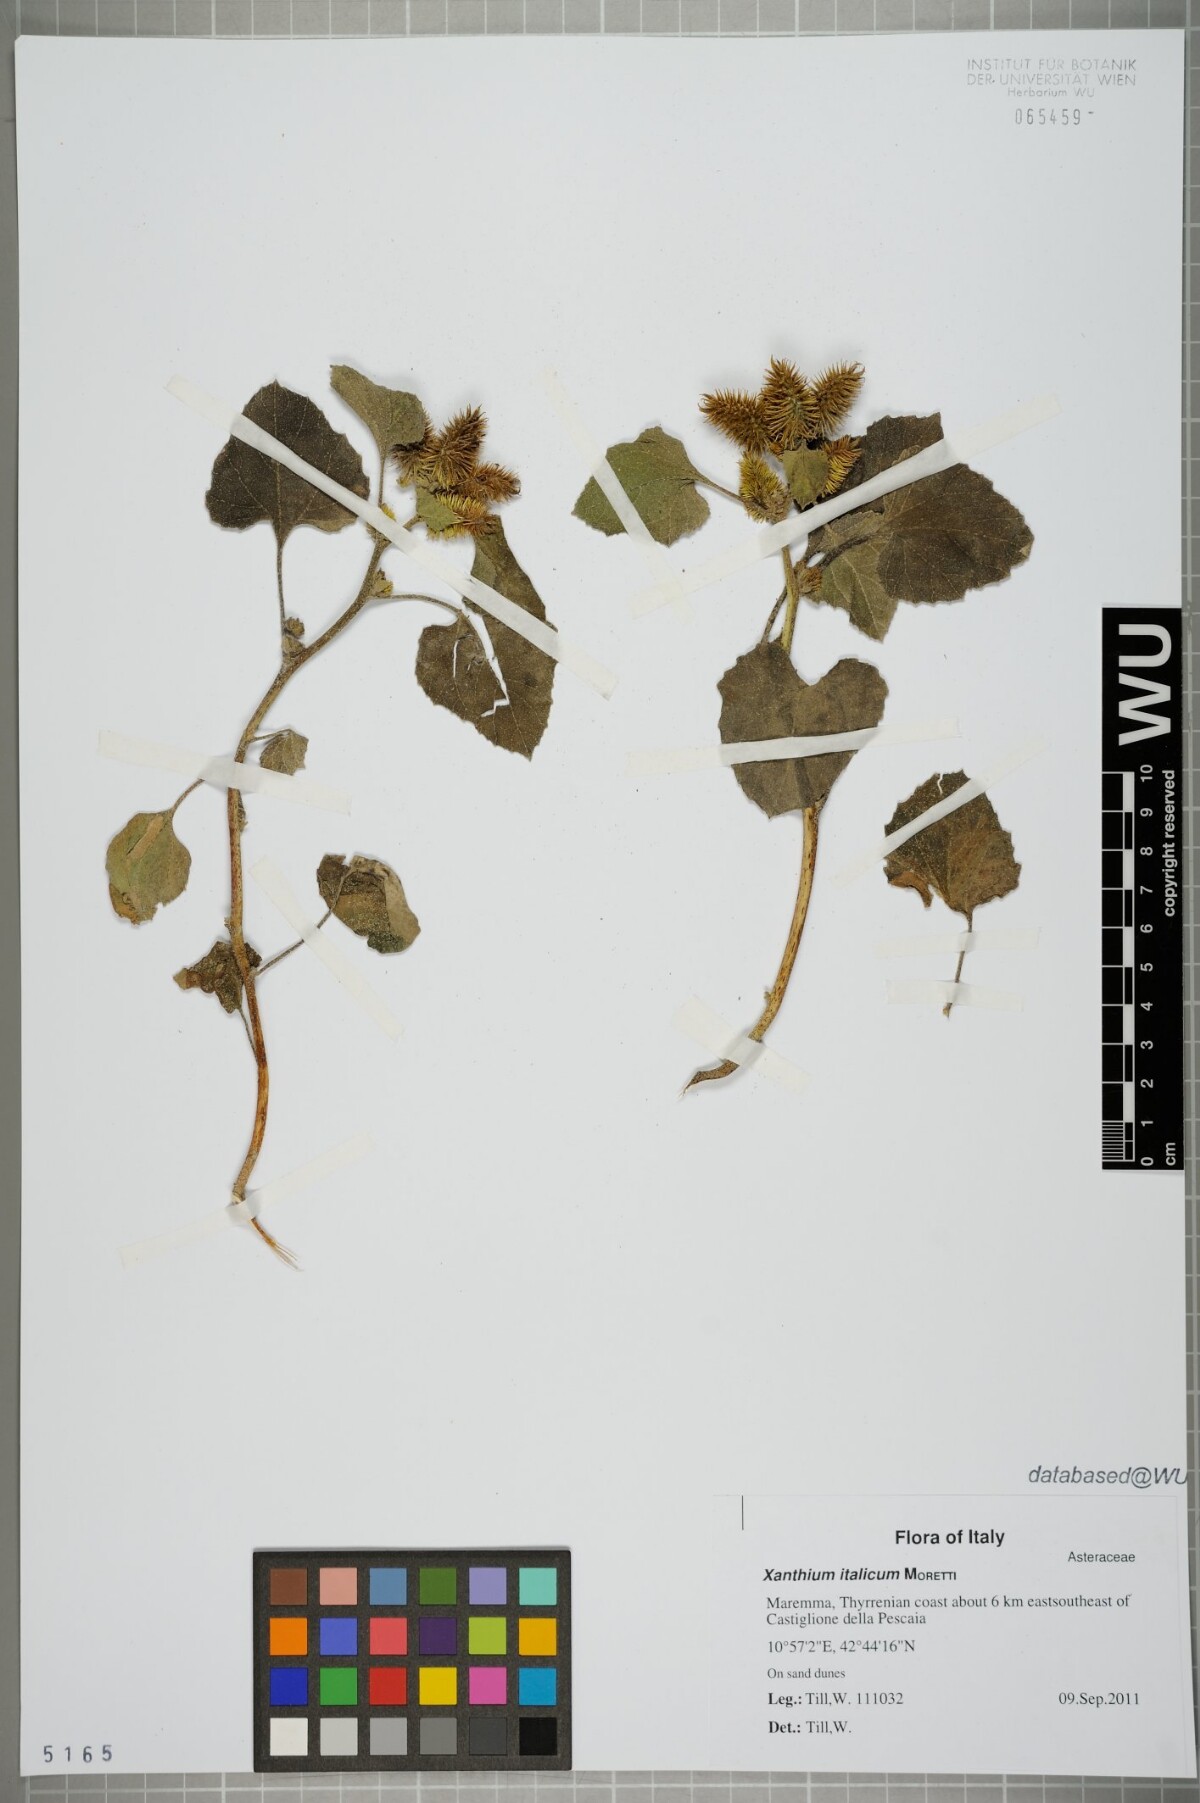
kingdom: Plantae
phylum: Tracheophyta
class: Magnoliopsida
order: Asterales
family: Asteraceae
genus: Xanthium
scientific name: Xanthium orientale
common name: Californian burr
